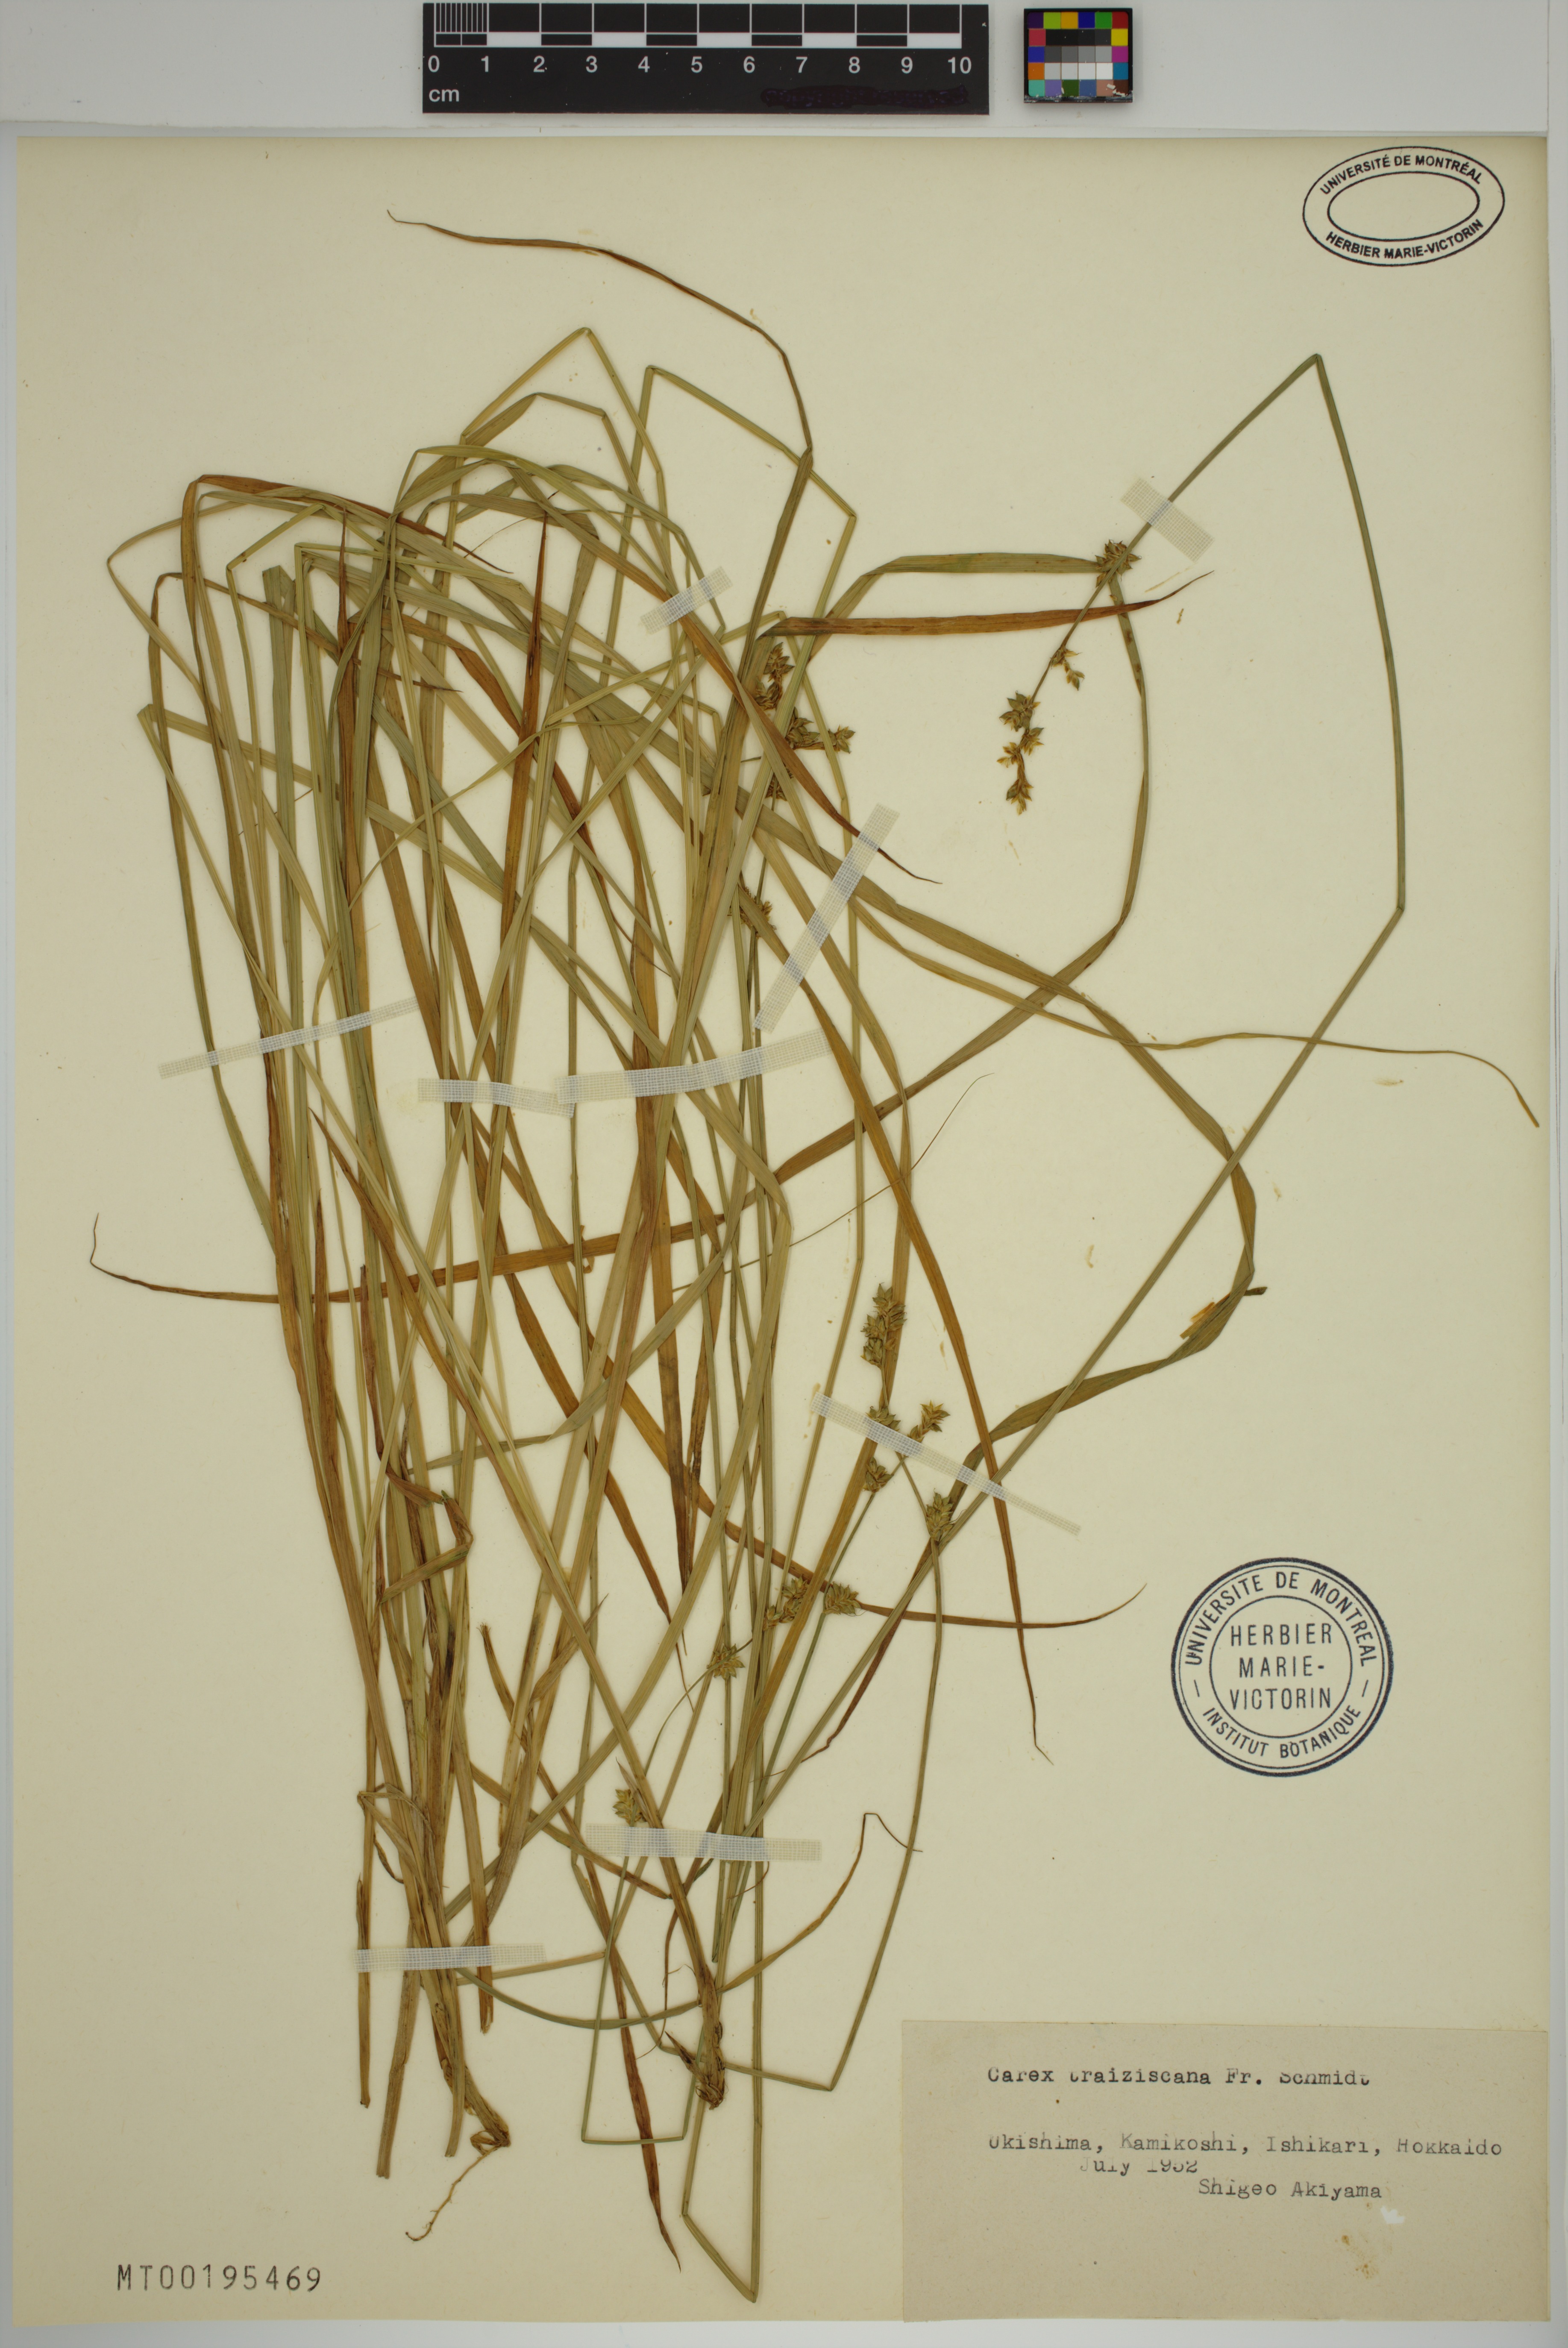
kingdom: Plantae
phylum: Tracheophyta
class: Liliopsida
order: Poales
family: Cyperaceae
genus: Carex
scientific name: Carex traiziscana
